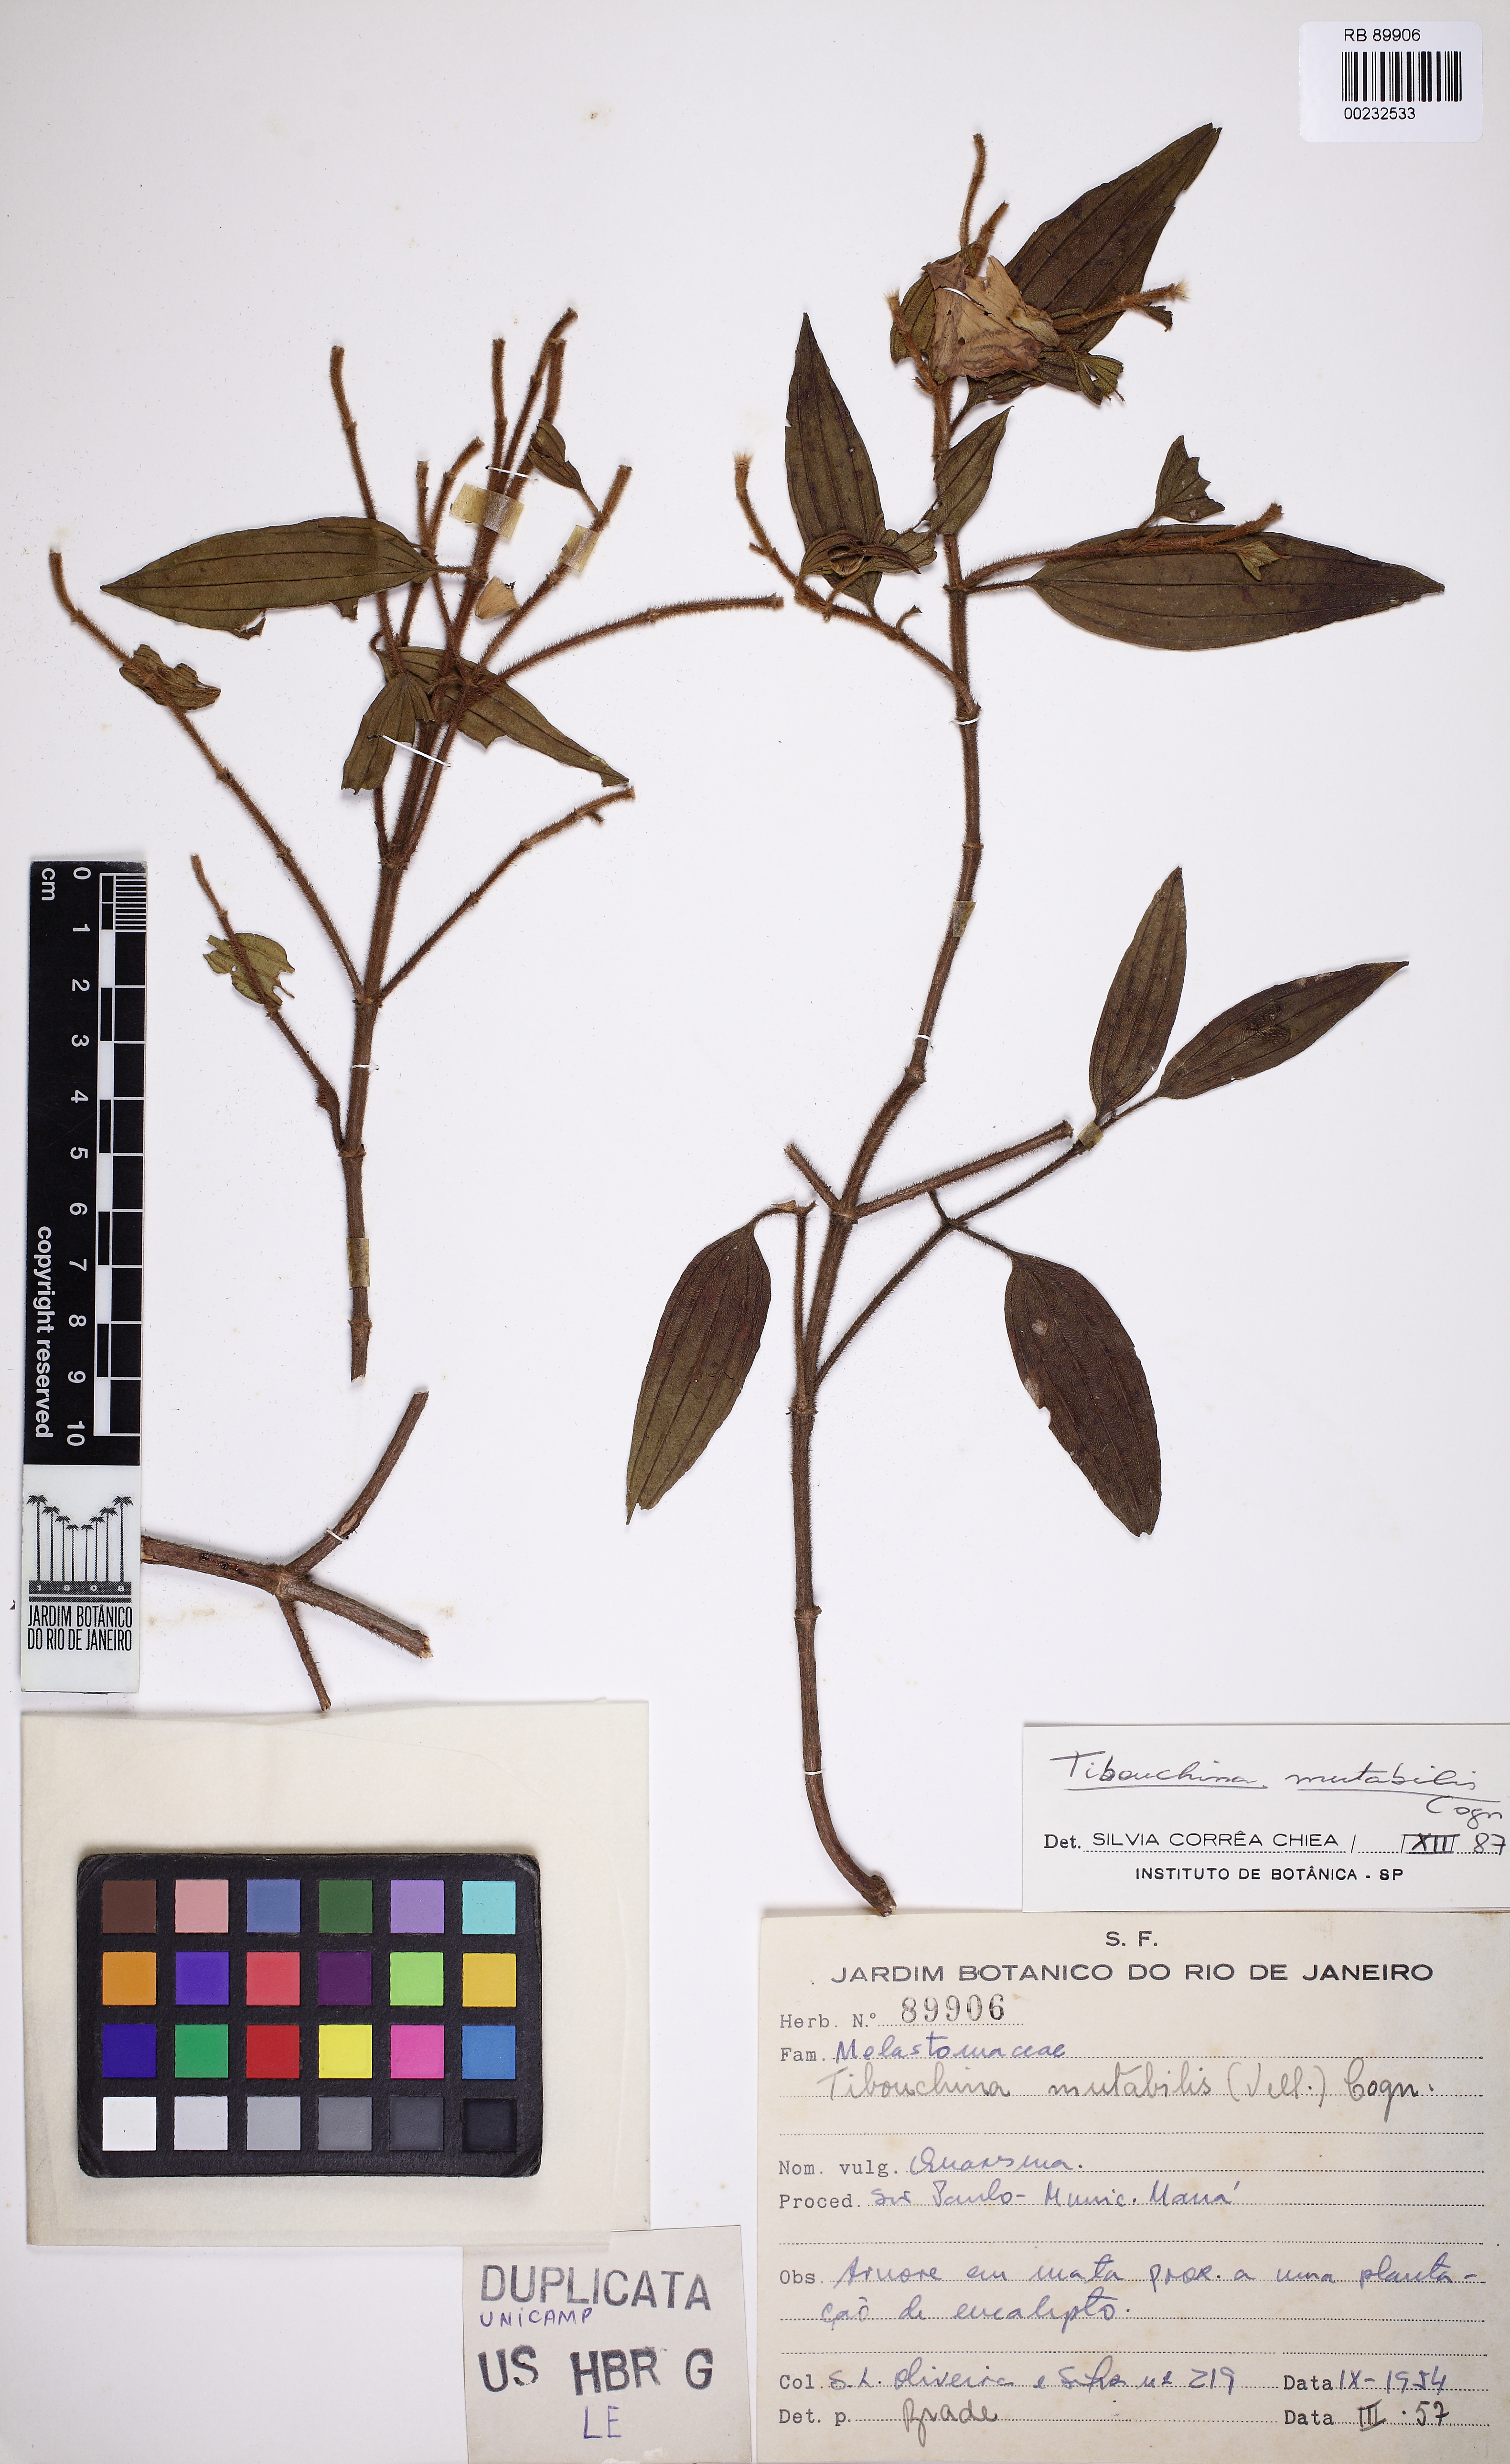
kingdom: Plantae
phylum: Tracheophyta
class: Magnoliopsida
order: Myrtales
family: Melastomataceae
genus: Pleroma
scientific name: Pleroma mosenii
